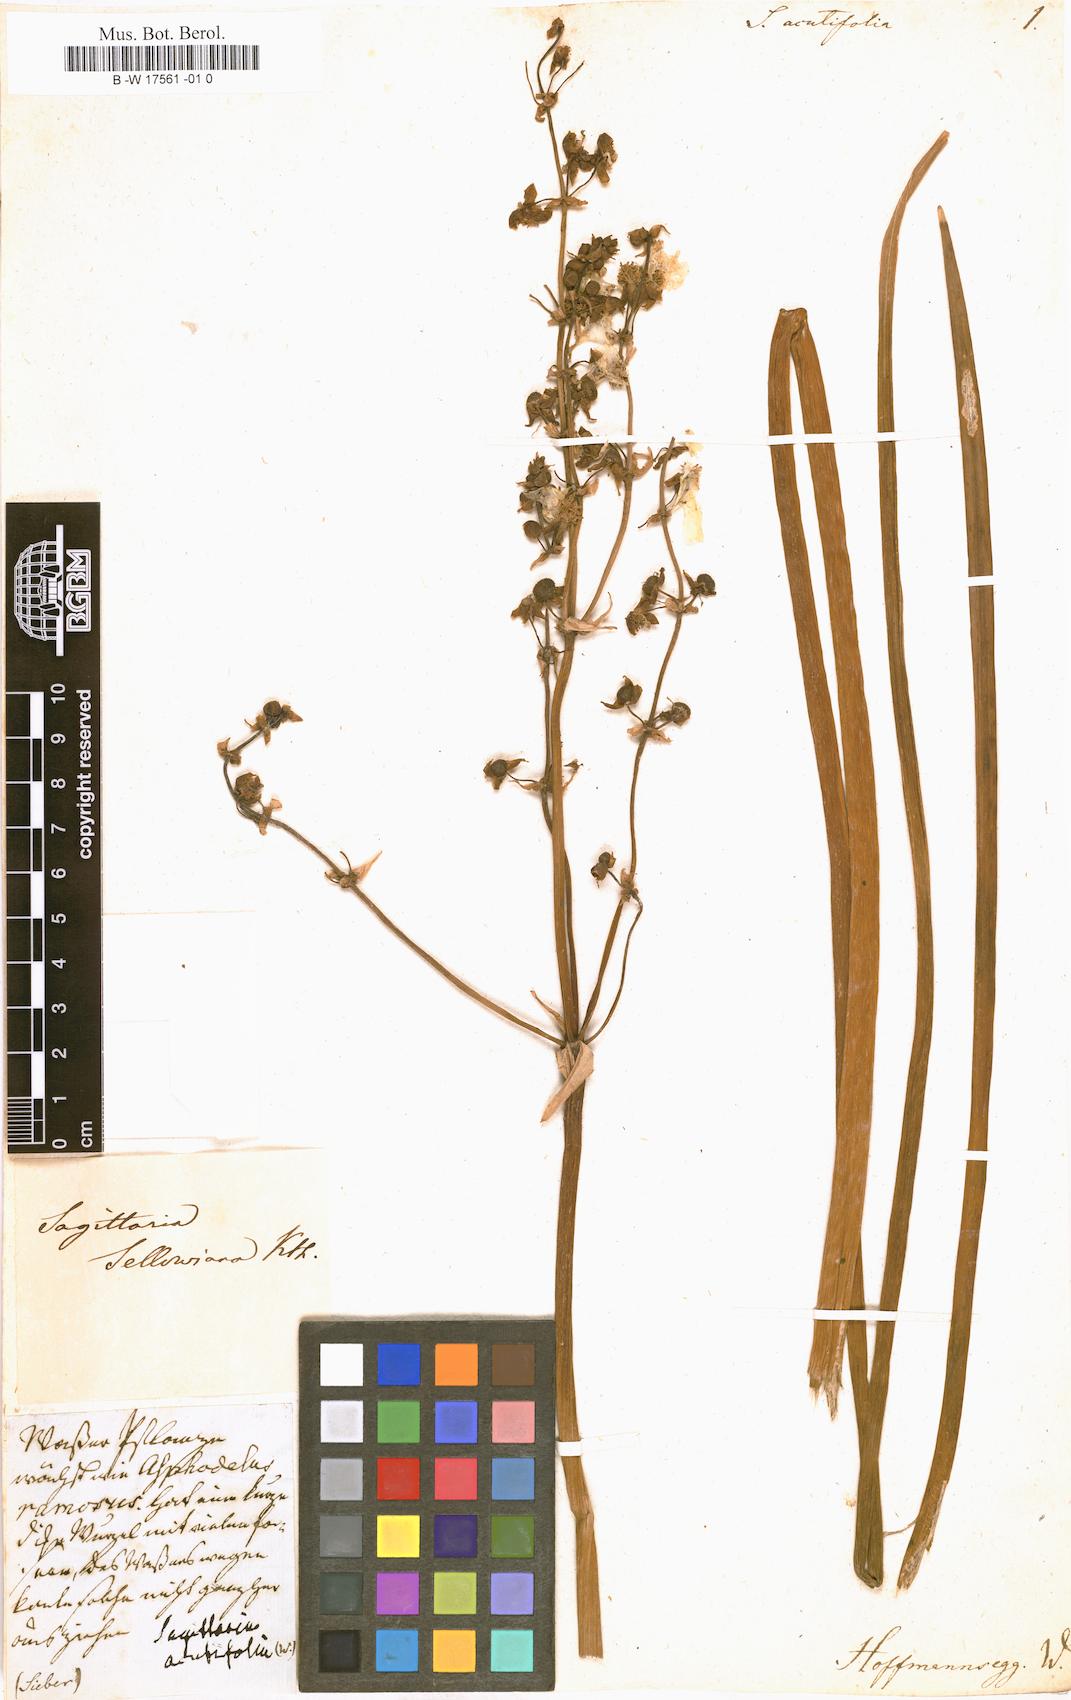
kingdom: Plantae
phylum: Tracheophyta
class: Liliopsida
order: Alismatales
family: Alismataceae
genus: Sagittaria
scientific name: Sagittaria lancifolia
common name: Lance-leaf arrowhead
